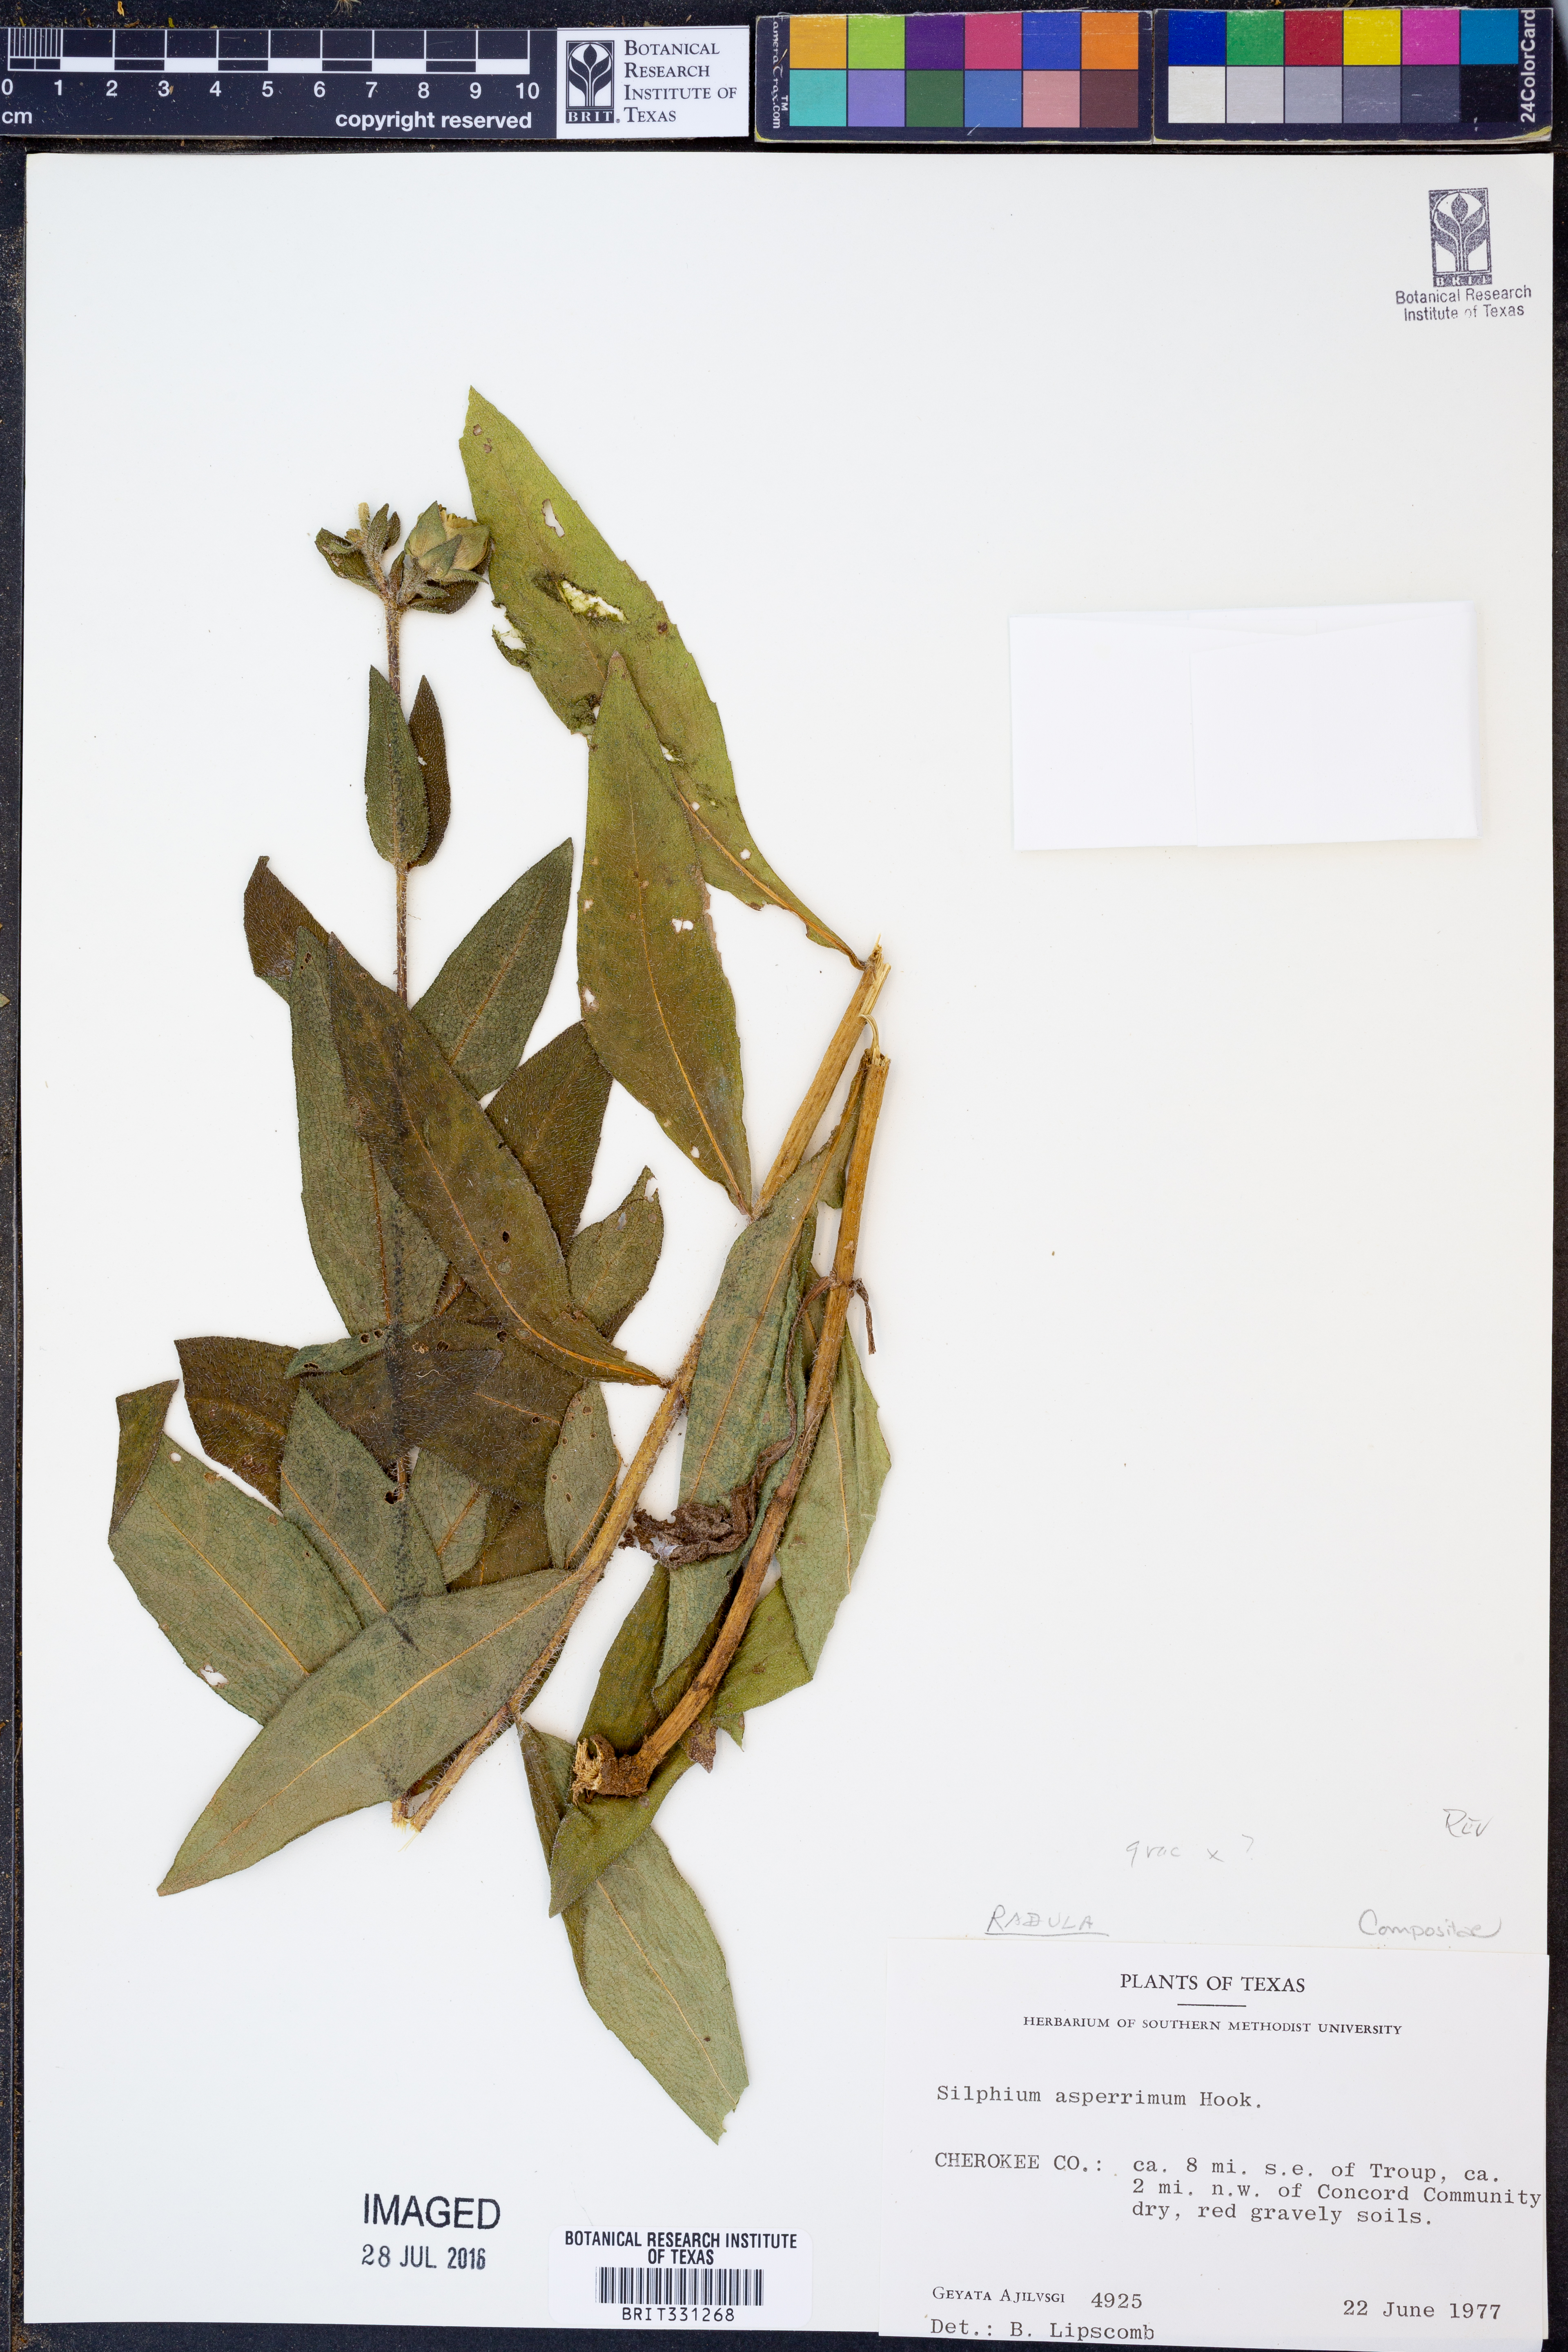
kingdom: Plantae
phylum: Tracheophyta
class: Magnoliopsida
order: Asterales
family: Asteraceae
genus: Silphium
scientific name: Silphium asperrimum
